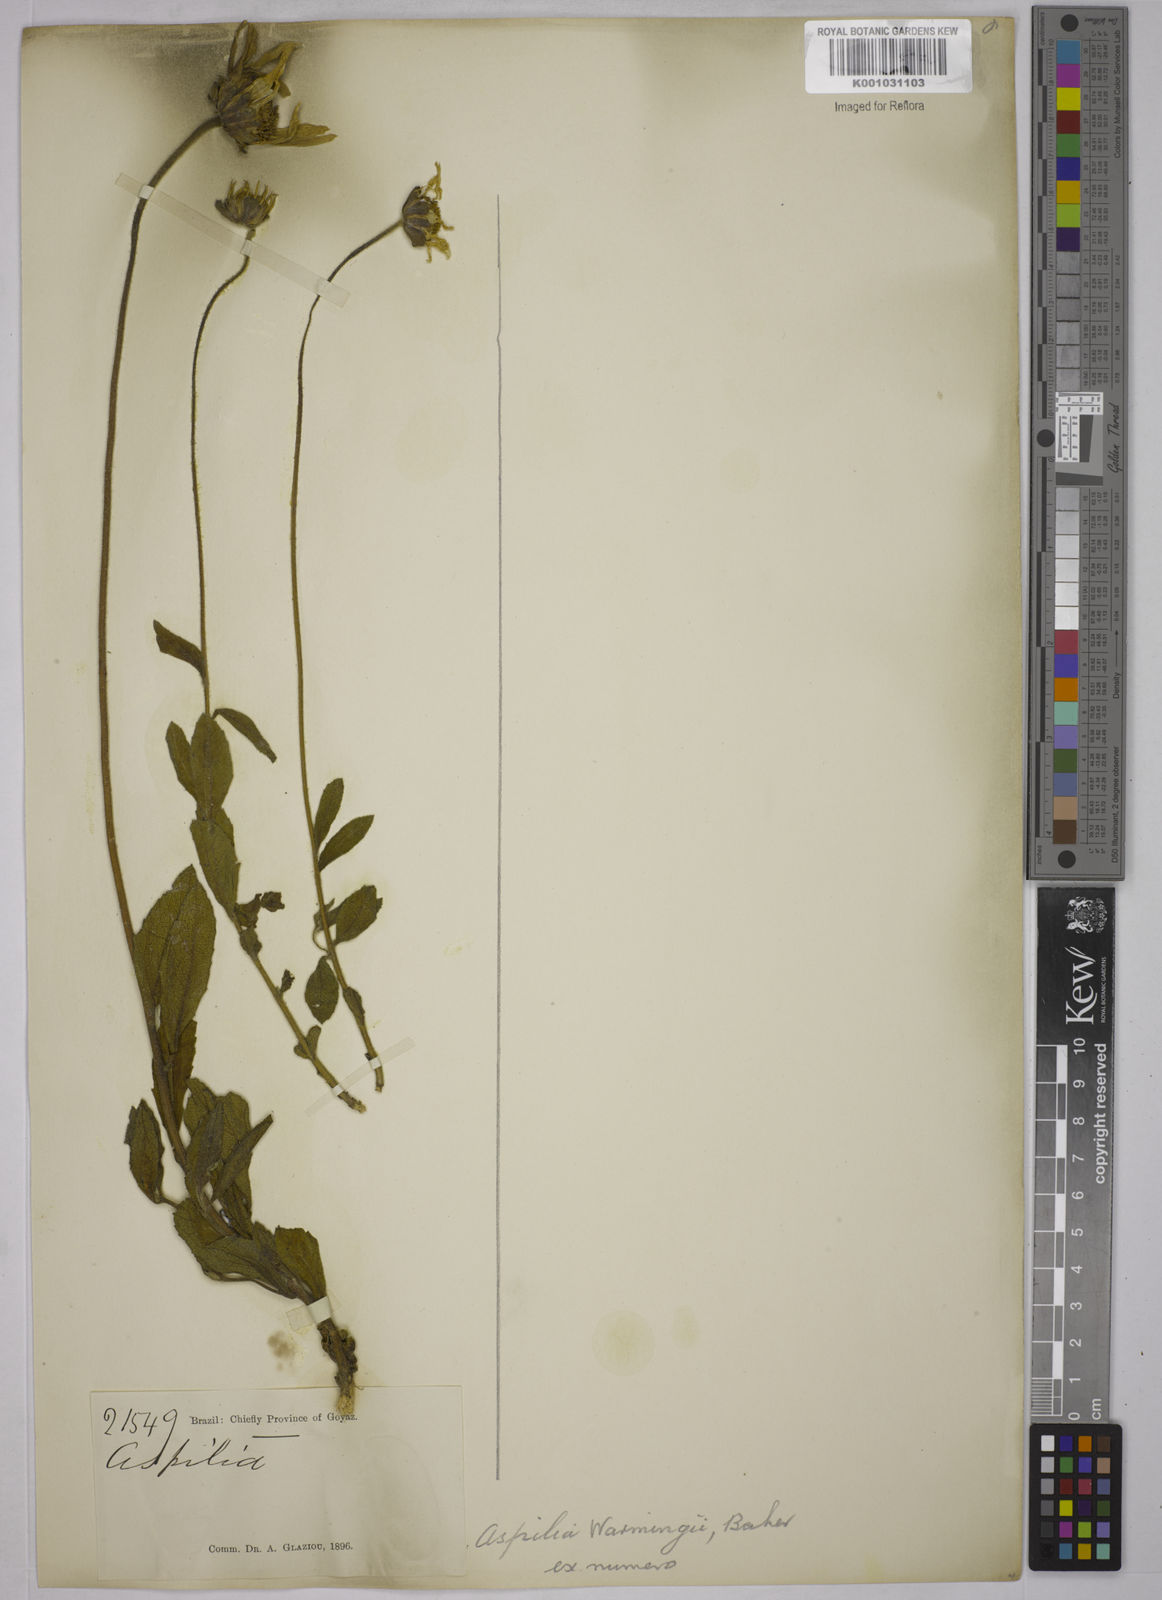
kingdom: Plantae
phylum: Tracheophyta
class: Magnoliopsida
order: Asterales
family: Asteraceae
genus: Wedelia
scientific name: Wedelia warmingii
